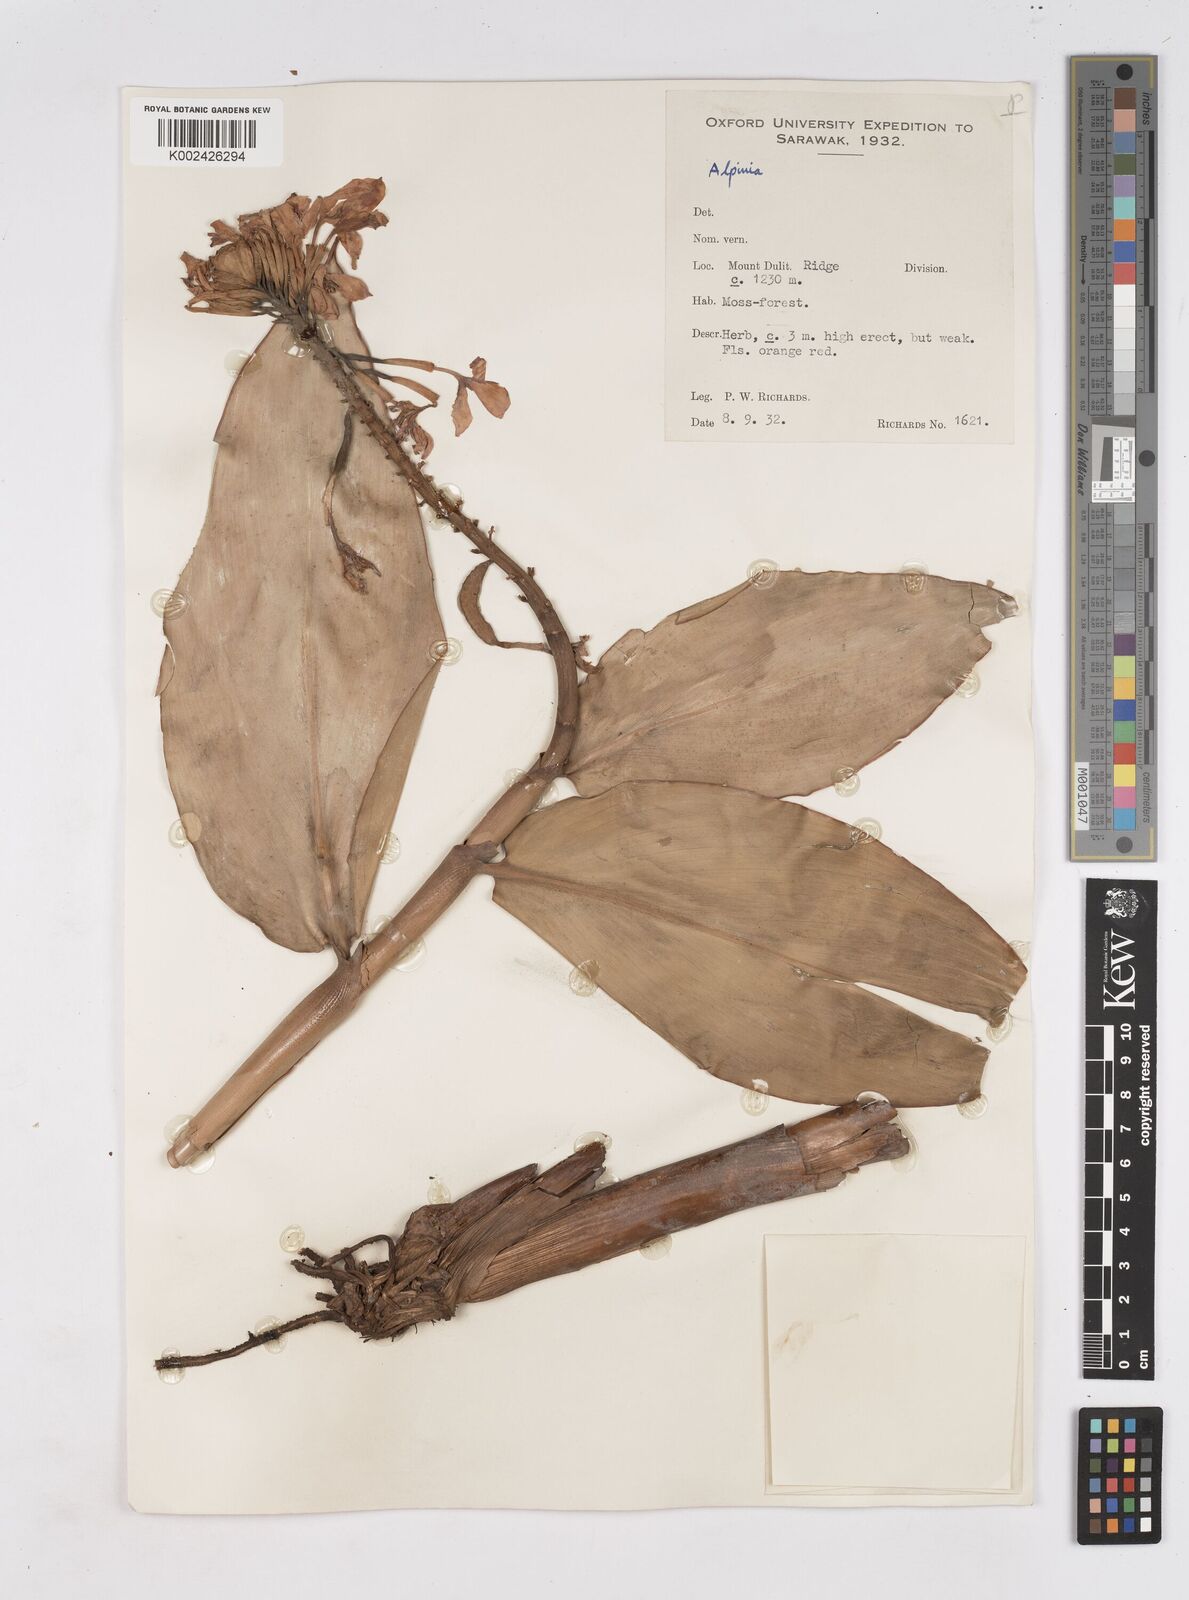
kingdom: Plantae
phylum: Tracheophyta
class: Liliopsida
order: Zingiberales
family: Zingiberaceae
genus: Burbidgea
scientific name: Burbidgea longiflora
